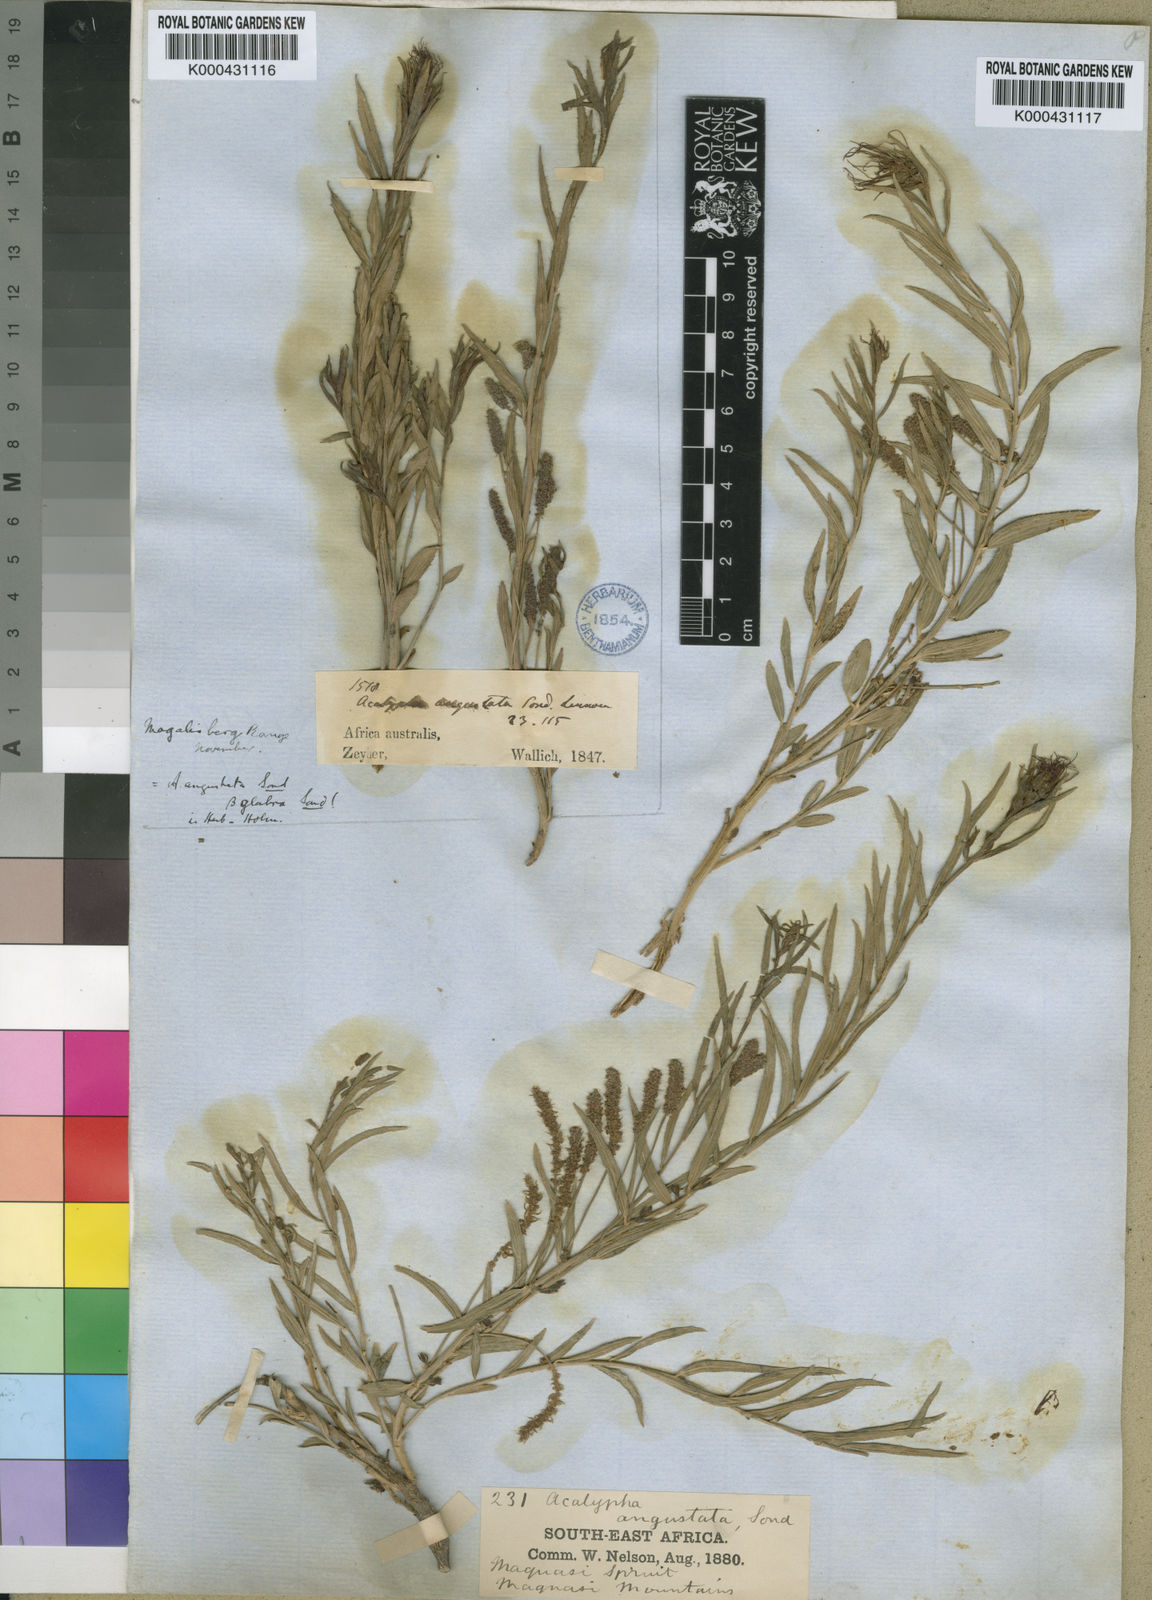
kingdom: Plantae
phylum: Tracheophyta
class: Magnoliopsida
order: Malpighiales
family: Euphorbiaceae
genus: Acalypha
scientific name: Acalypha angustata
